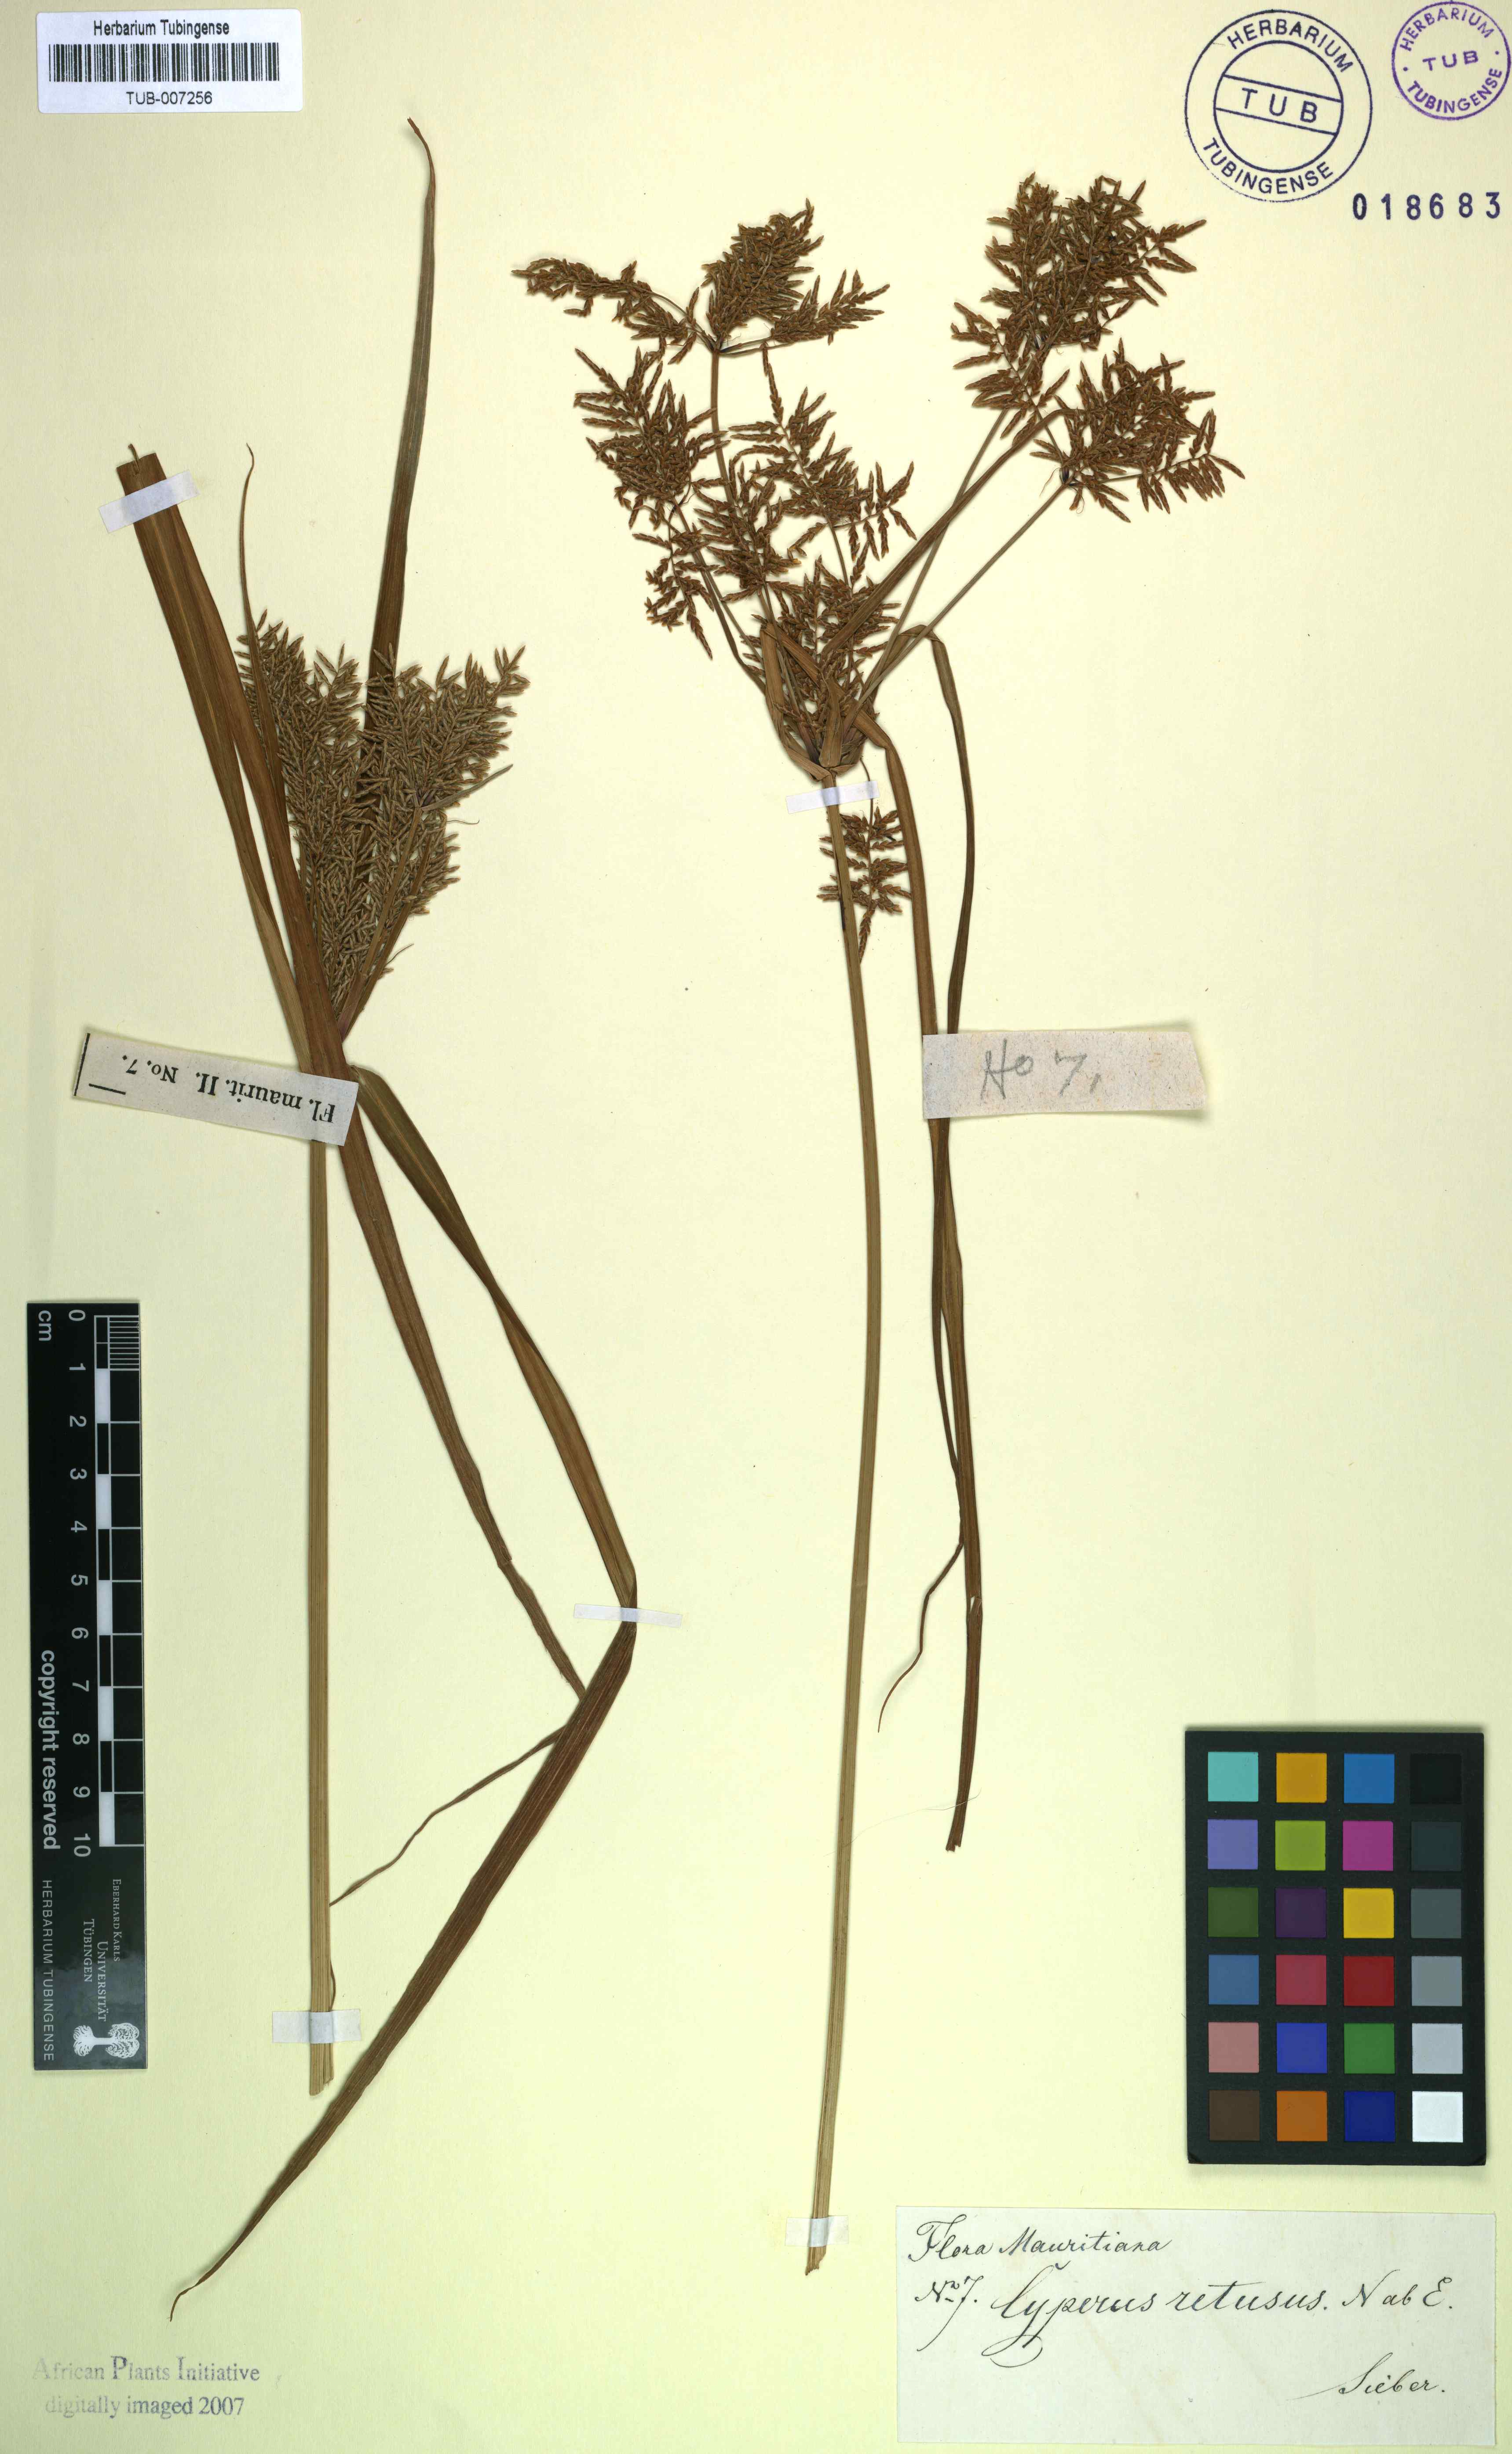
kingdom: Plantae
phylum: Tracheophyta
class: Liliopsida
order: Poales
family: Cyperaceae
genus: Cyperus
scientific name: Cyperus esculentus
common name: Yellow nutsedge
